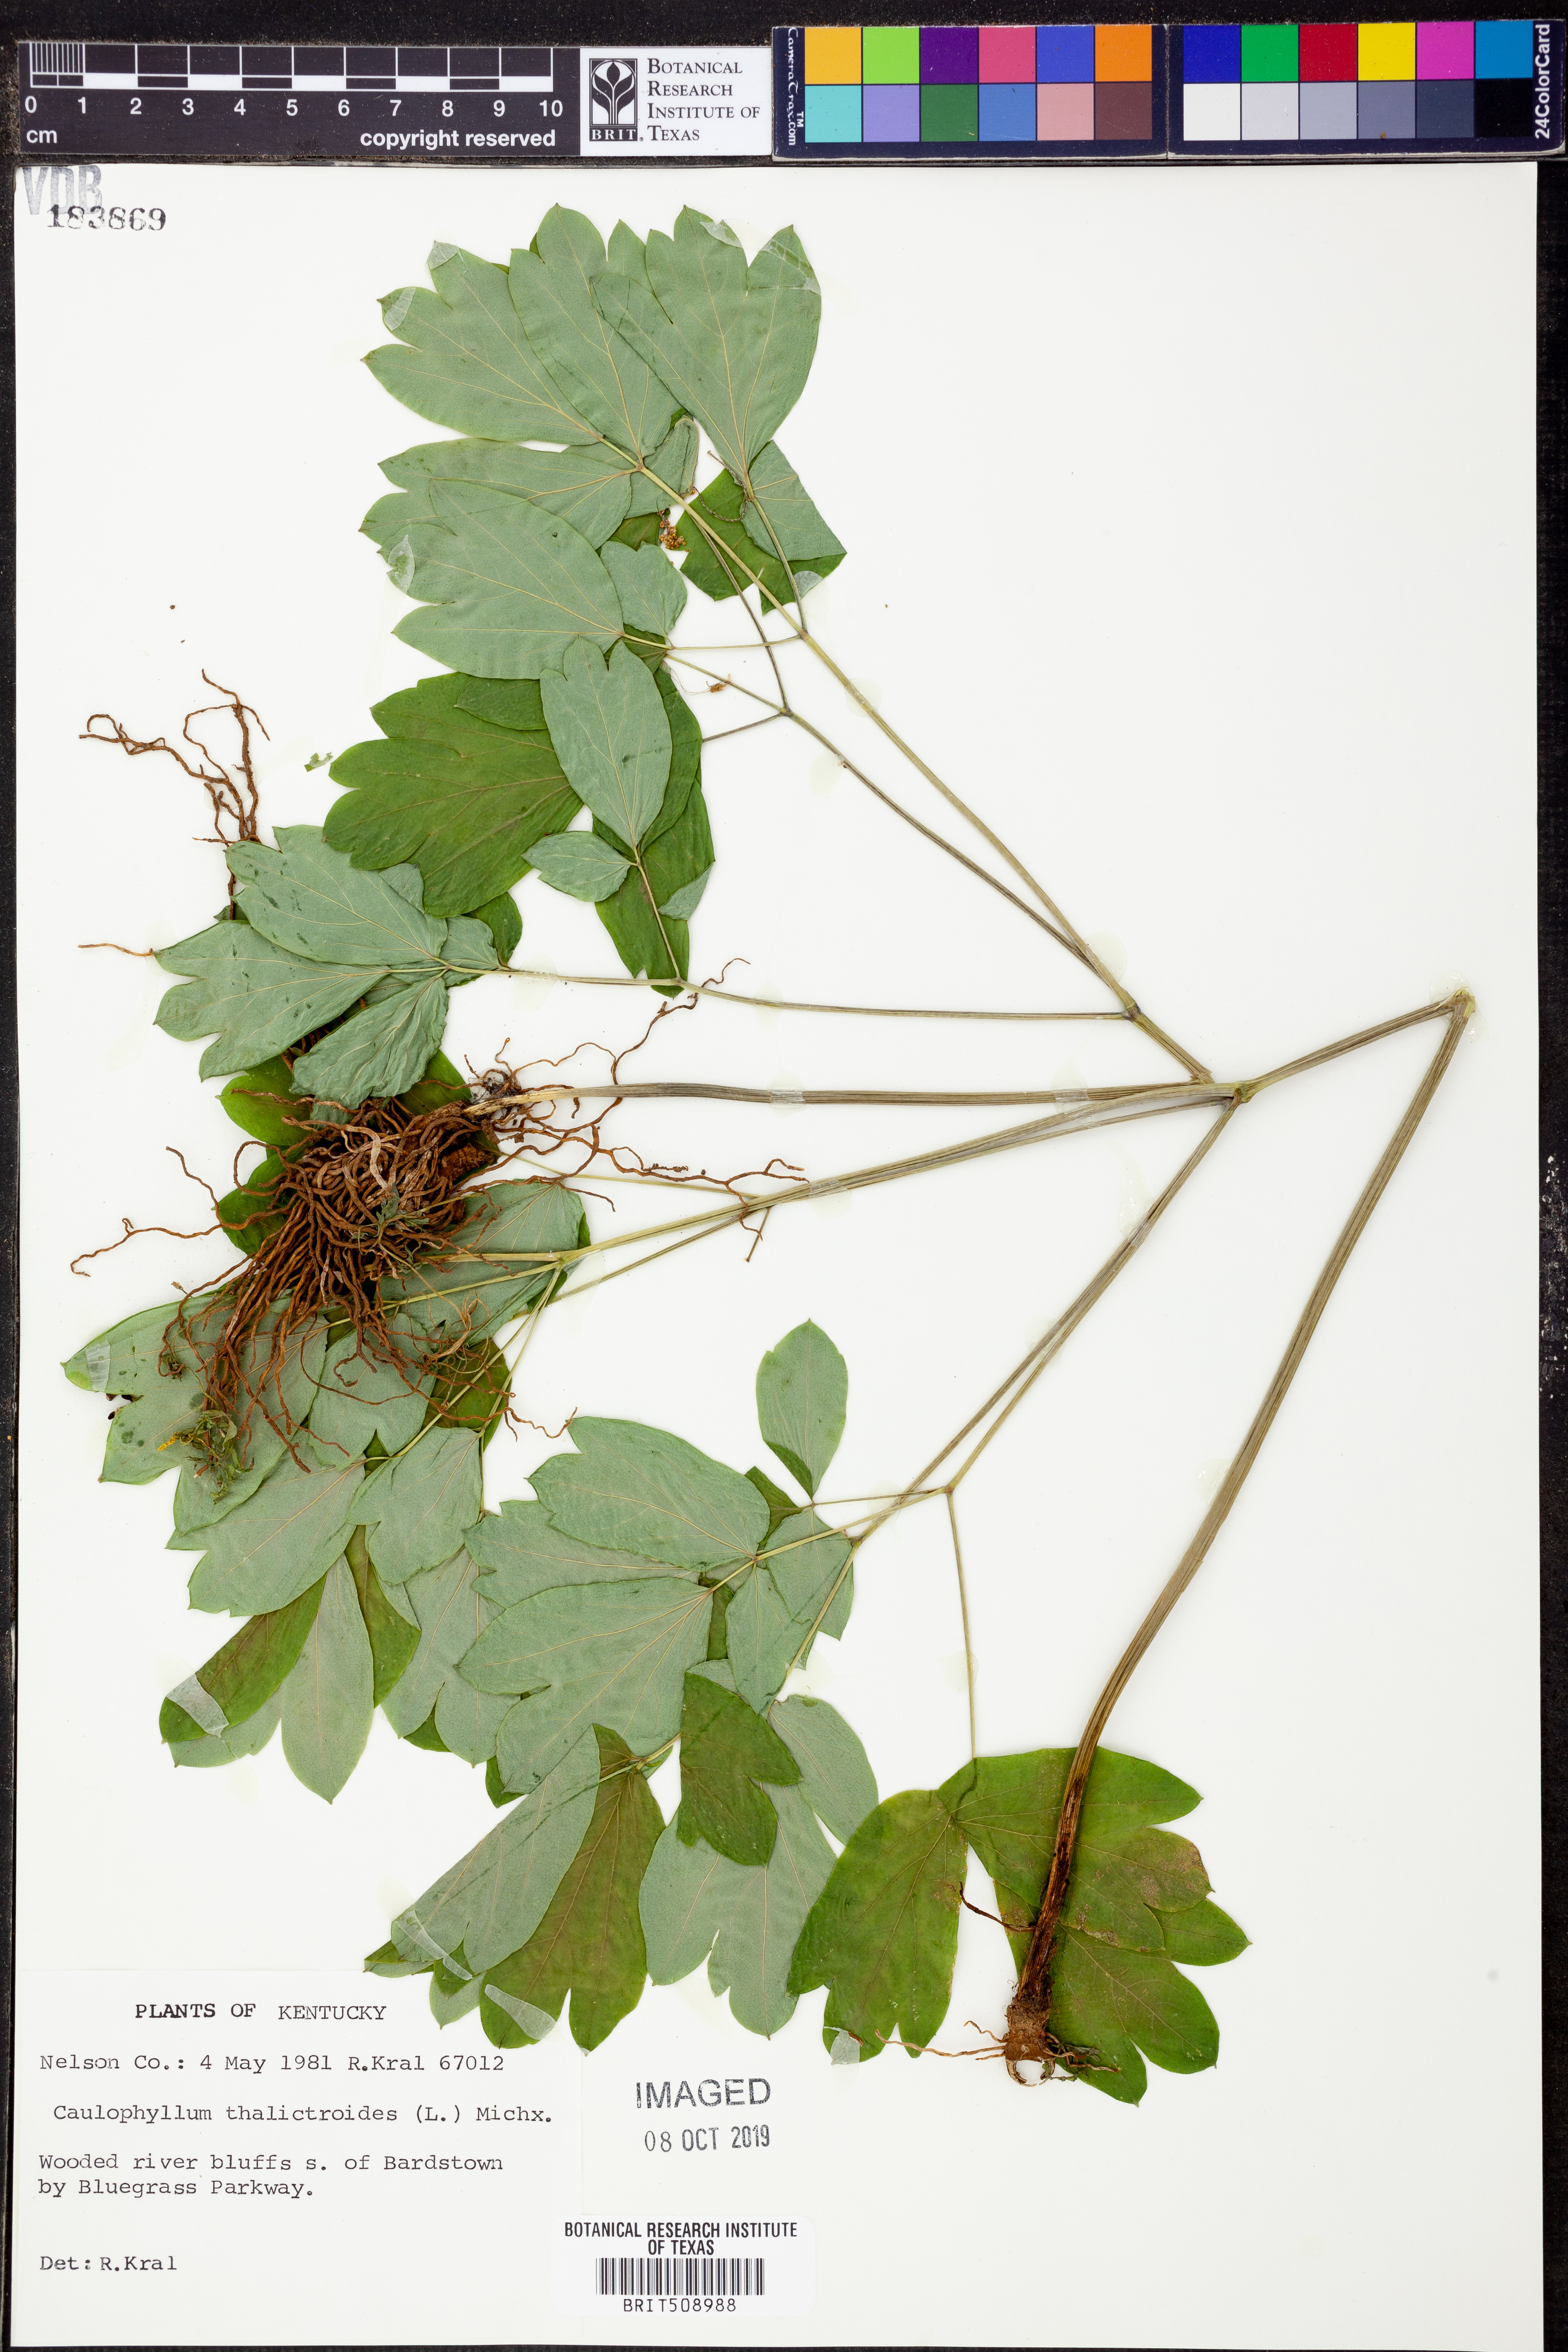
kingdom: Plantae
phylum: Tracheophyta
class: Magnoliopsida
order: Ranunculales
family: Berberidaceae
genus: Caulophyllum
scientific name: Caulophyllum thalictroides
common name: Blue cohosh
